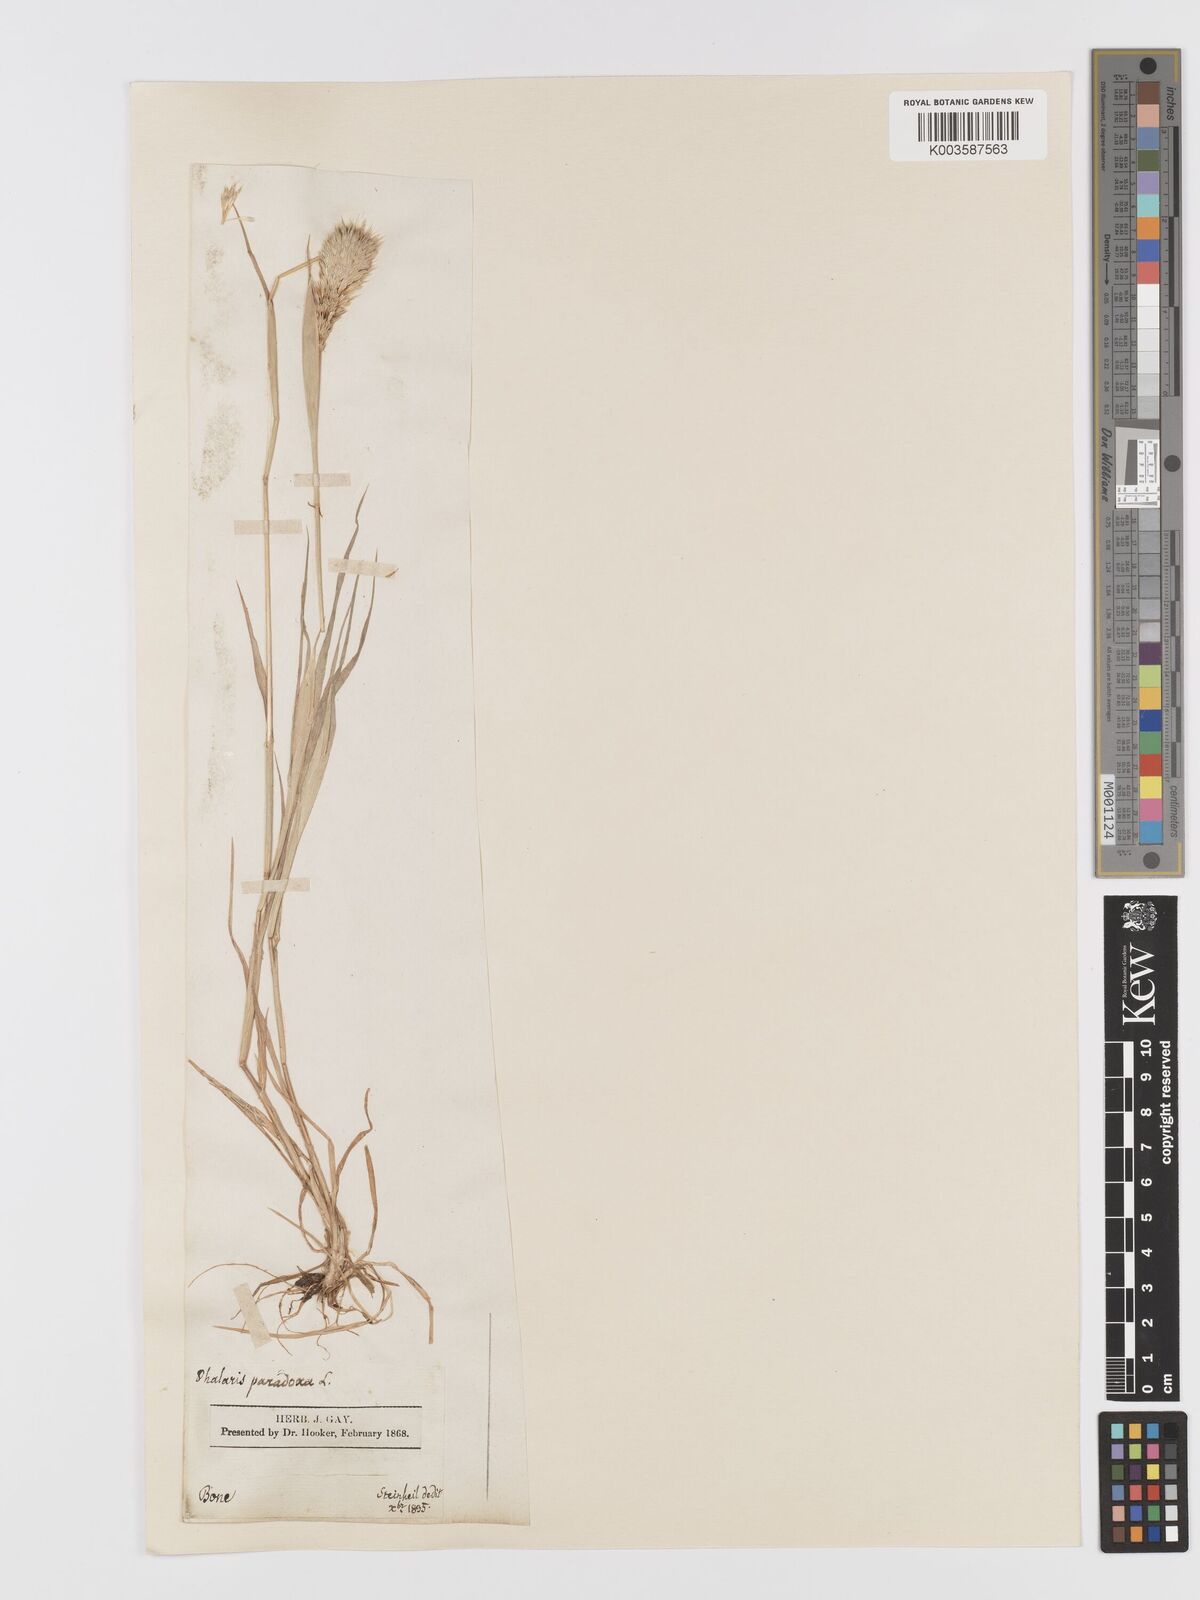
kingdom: Plantae
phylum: Tracheophyta
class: Liliopsida
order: Poales
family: Poaceae
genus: Phalaris
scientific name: Phalaris paradoxa
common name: Awned canary-grass
